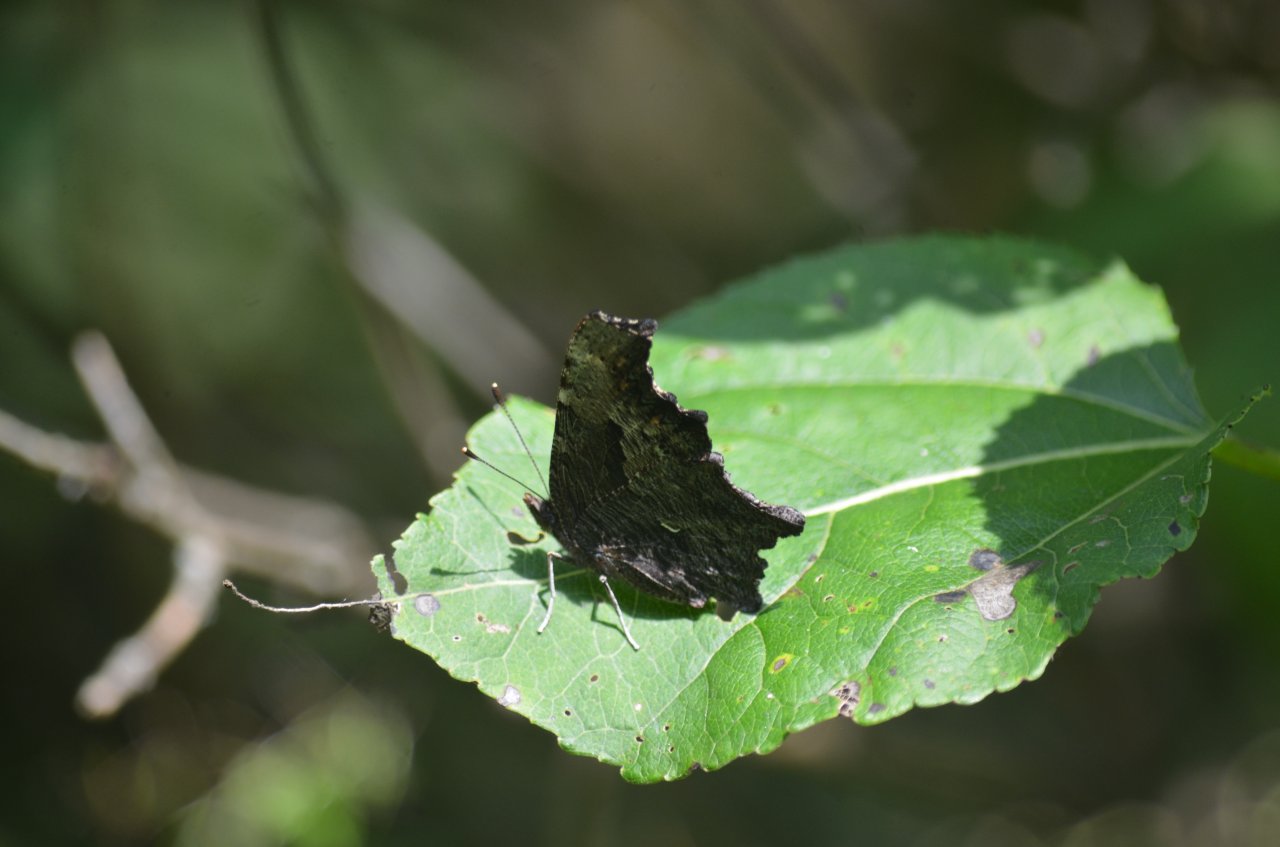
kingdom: Animalia
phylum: Arthropoda
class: Insecta
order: Lepidoptera
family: Nymphalidae
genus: Polygonia
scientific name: Polygonia progne
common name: Gray Comma
